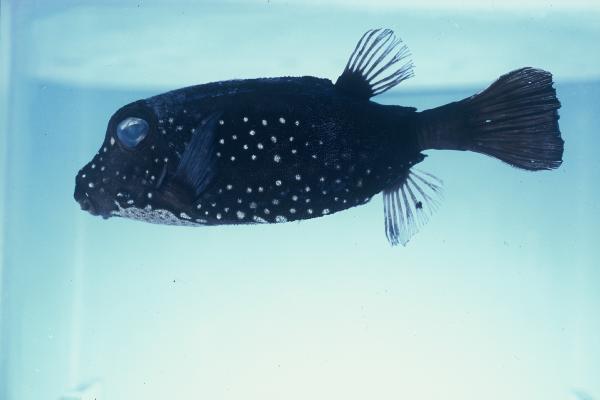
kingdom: Animalia
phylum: Chordata
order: Tetraodontiformes
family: Ostraciidae
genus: Ostracion
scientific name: Ostracion trachys
